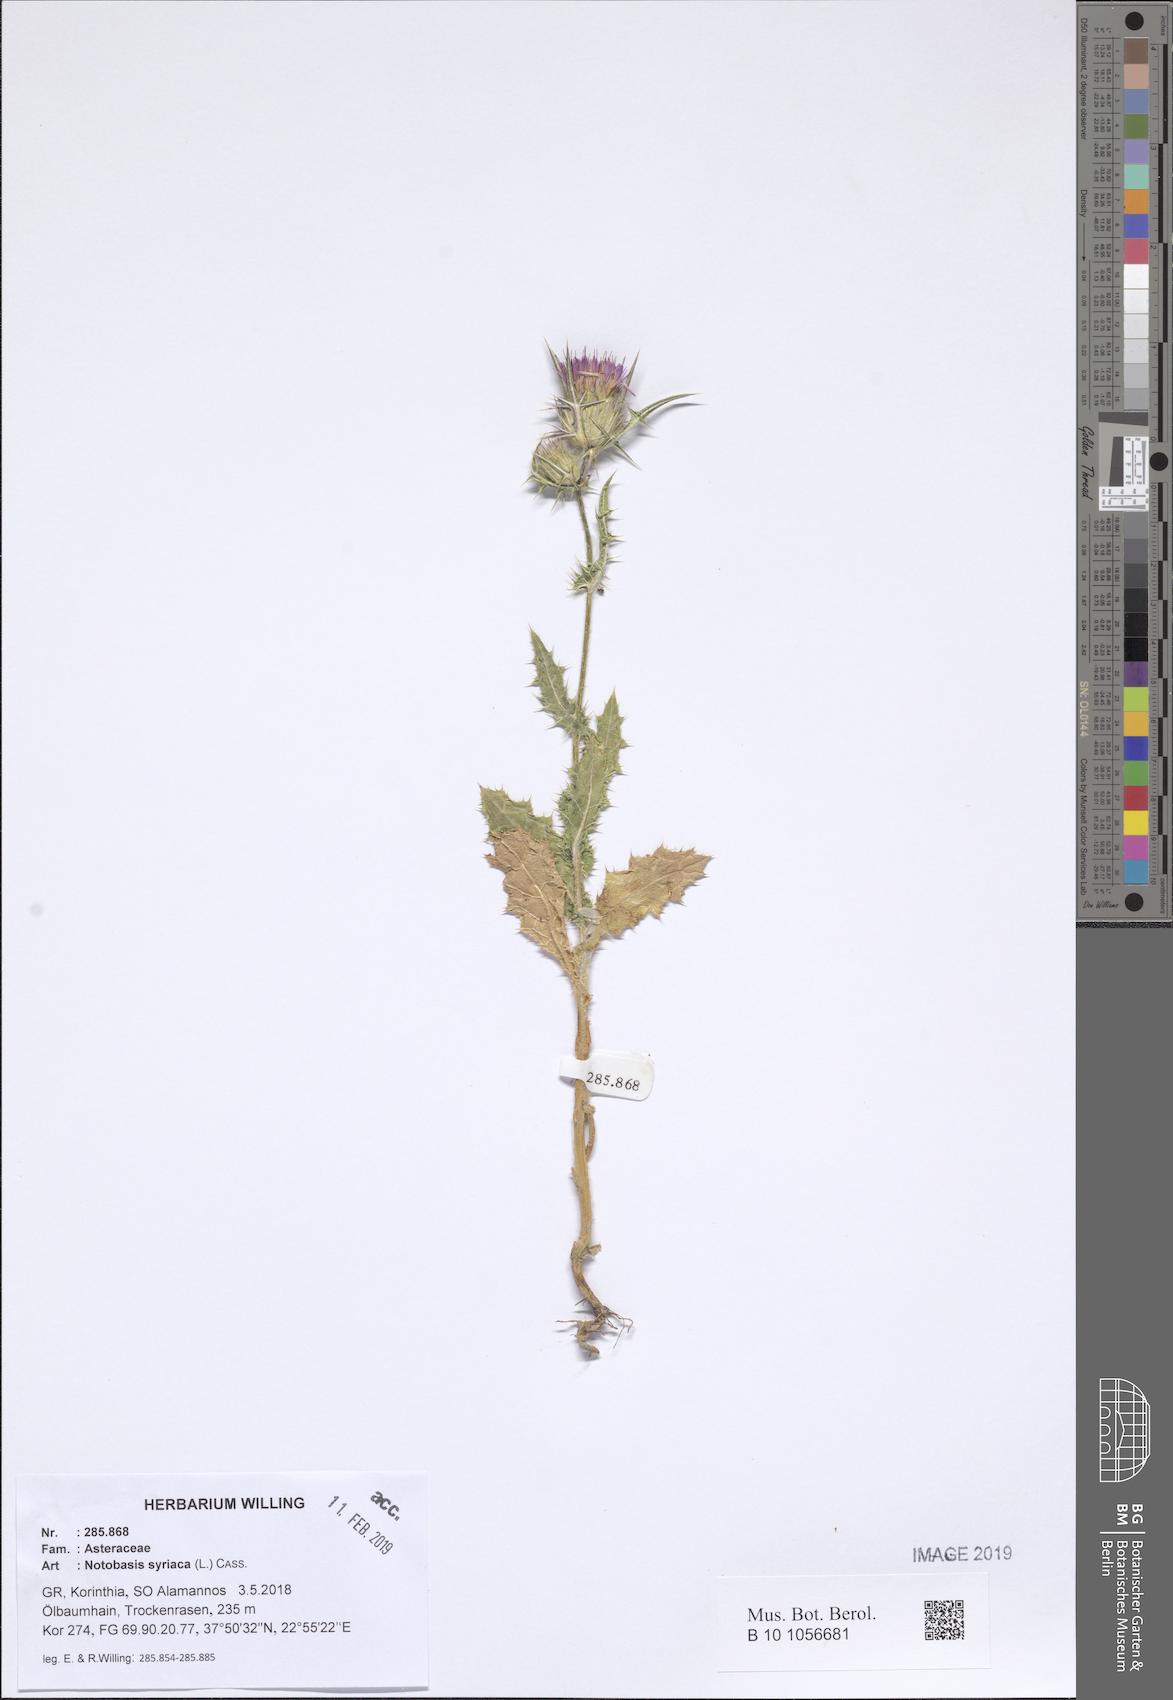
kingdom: Plantae
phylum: Tracheophyta
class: Magnoliopsida
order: Asterales
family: Asteraceae
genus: Notobasis
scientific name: Notobasis syriaca
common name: Syrian thistle
